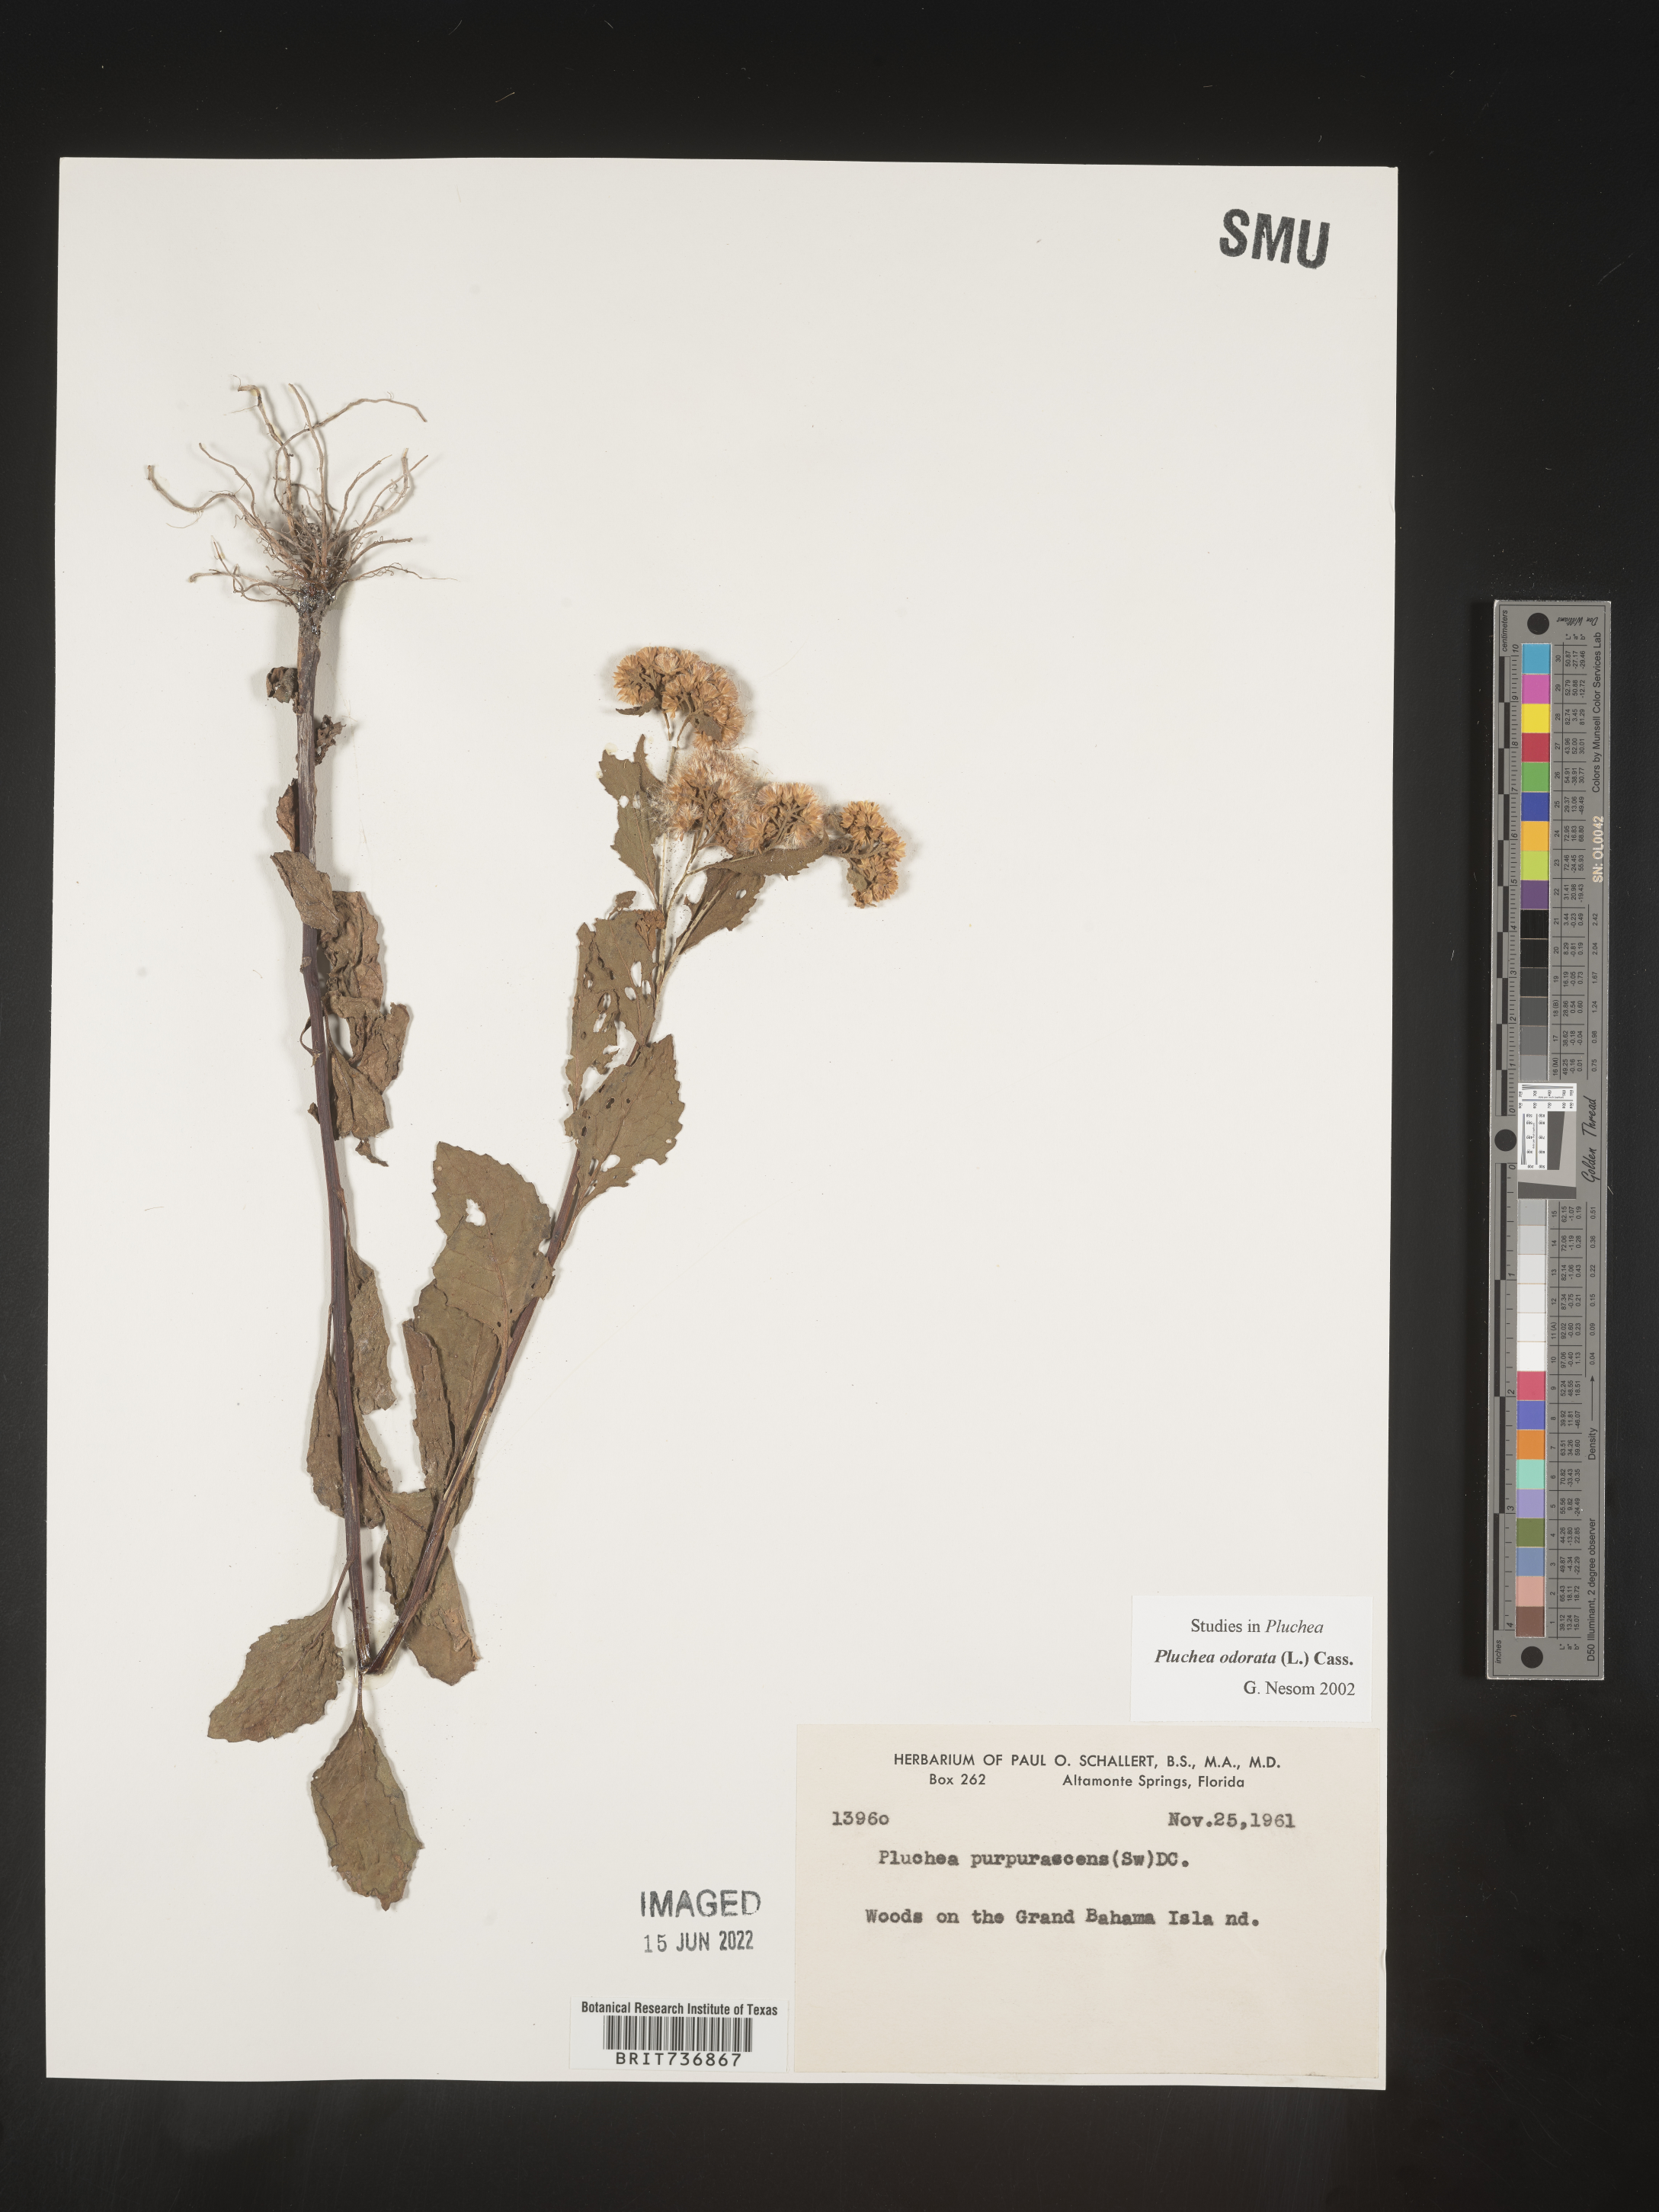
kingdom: Plantae
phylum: Tracheophyta
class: Magnoliopsida
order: Asterales
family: Asteraceae
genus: Pluchea
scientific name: Pluchea
